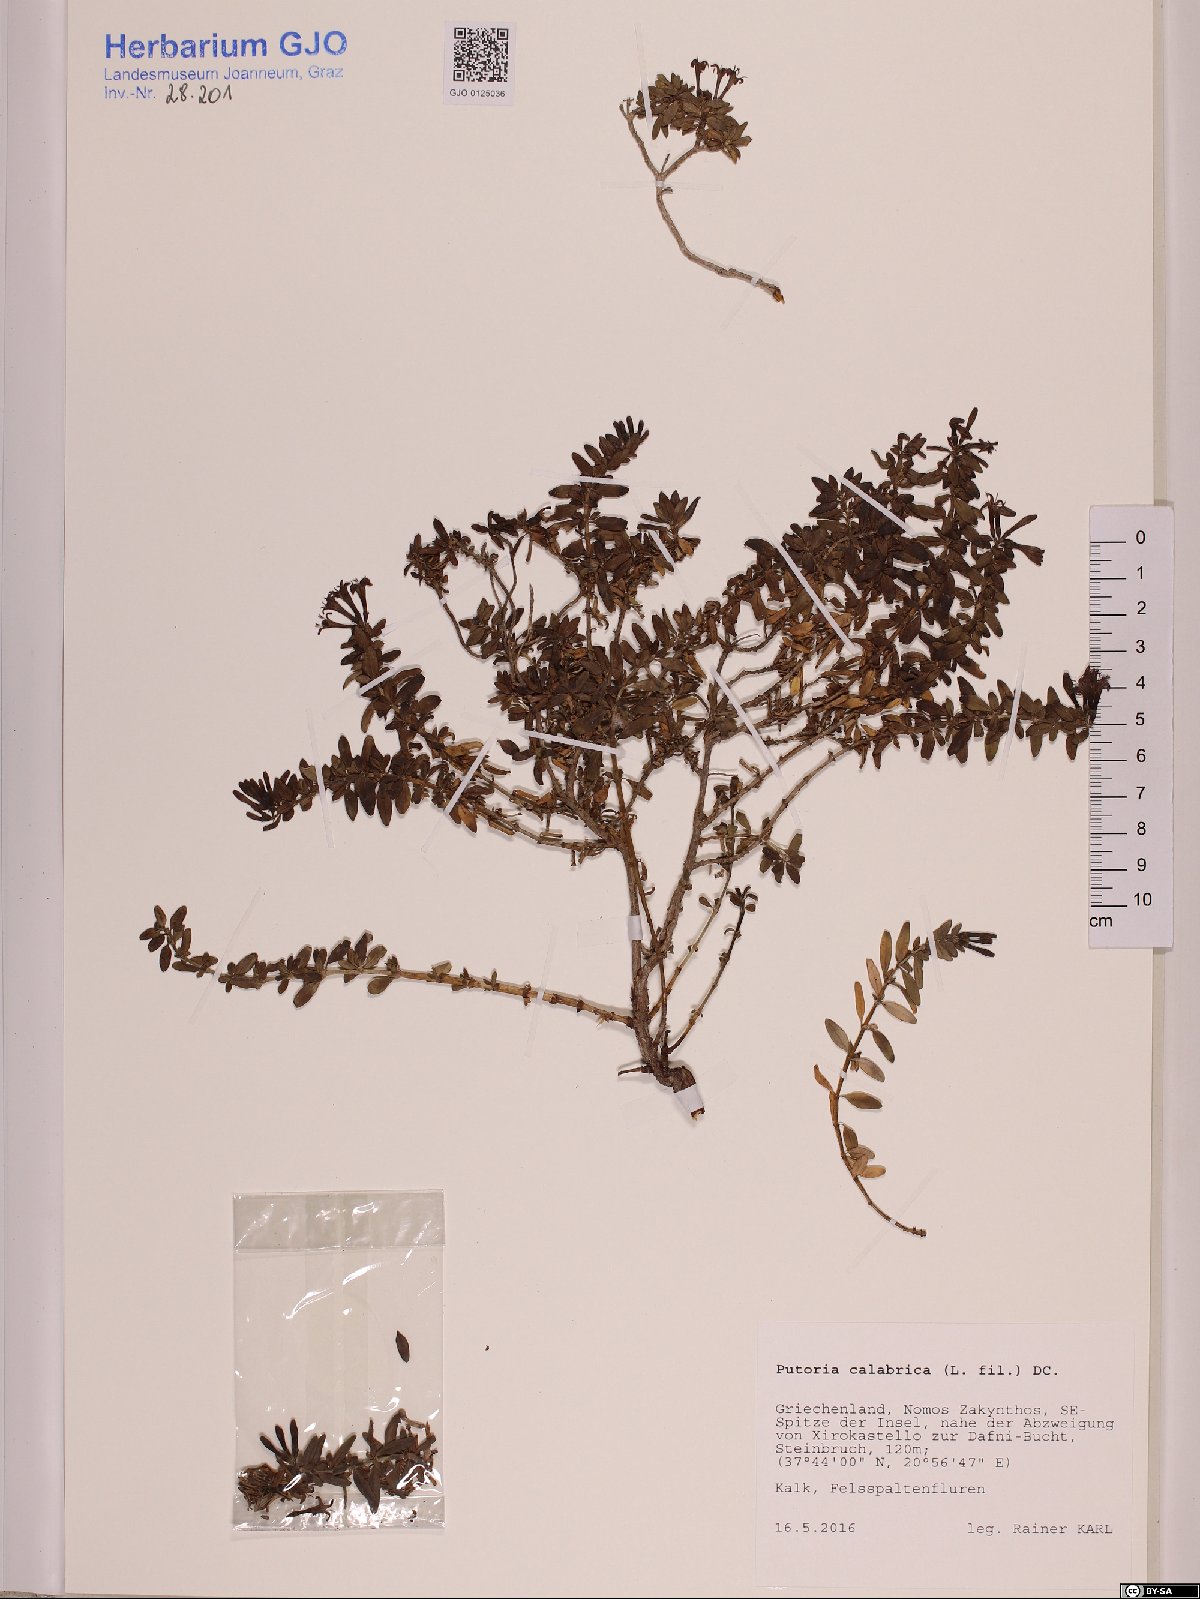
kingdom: Plantae
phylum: Tracheophyta
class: Magnoliopsida
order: Gentianales
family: Rubiaceae
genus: Plocama
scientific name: Plocama calabrica
